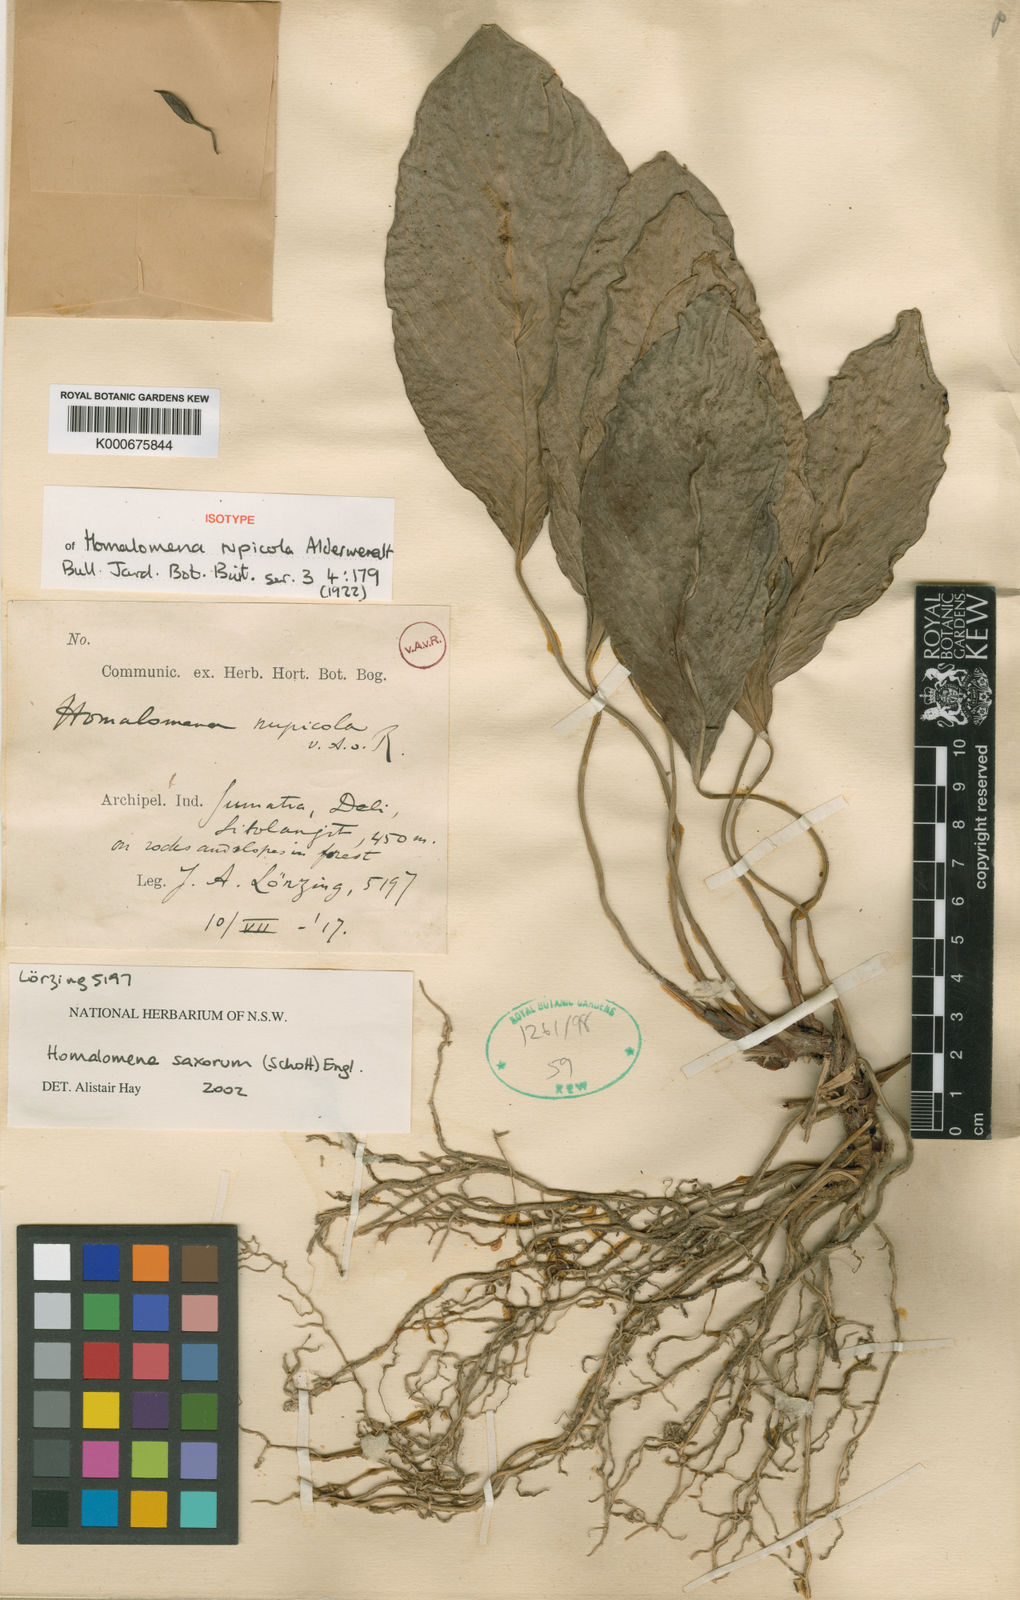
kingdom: Plantae
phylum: Tracheophyta
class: Liliopsida
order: Alismatales
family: Araceae
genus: Homalomena
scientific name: Homalomena batoeensis
